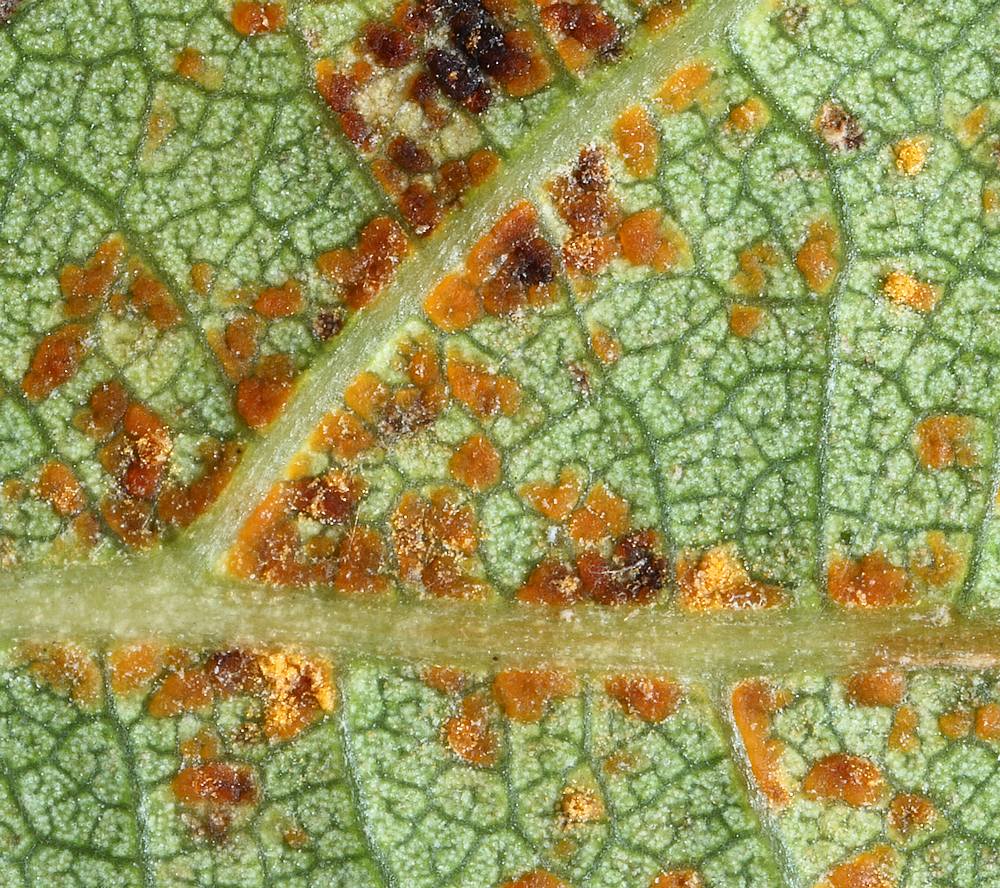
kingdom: Fungi
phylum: Basidiomycota
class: Pucciniomycetes
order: Pucciniales
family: Melampsoraceae
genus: Melampsora
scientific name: Melampsora populnea
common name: poppel-skorperust
